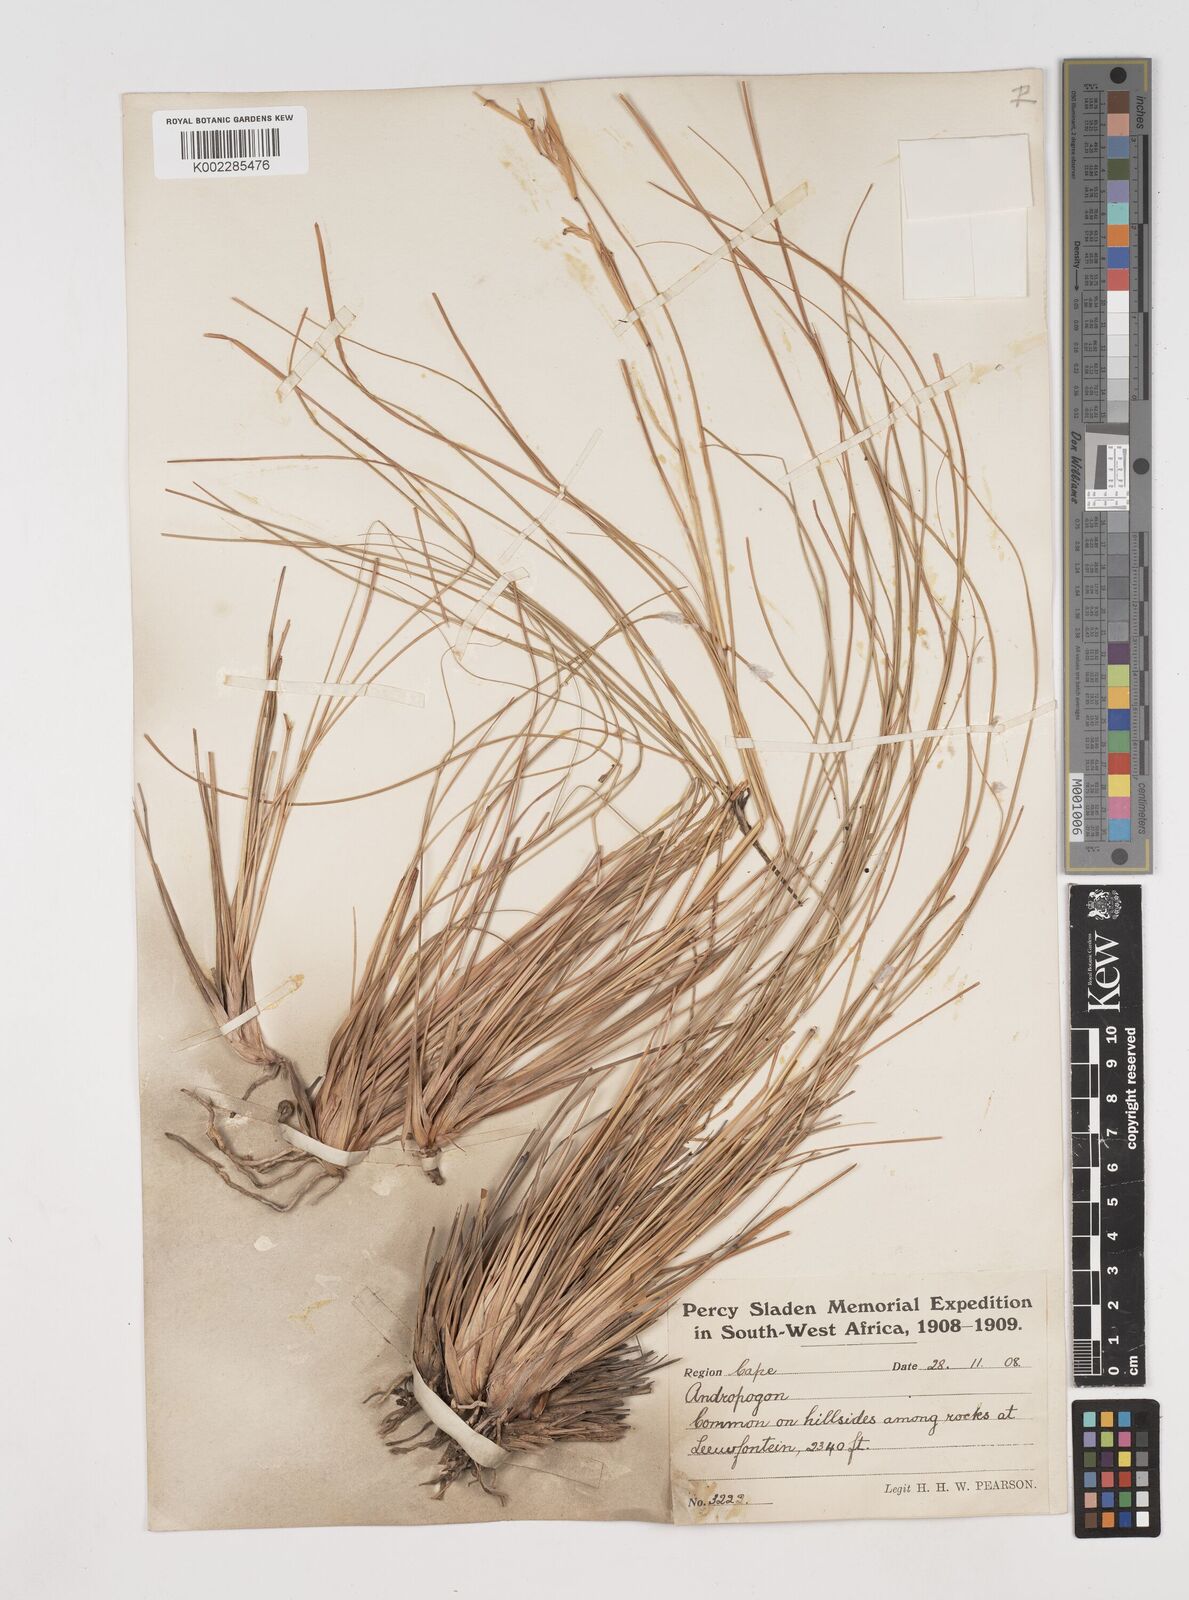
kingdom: Plantae
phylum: Tracheophyta
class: Liliopsida
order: Poales
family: Poaceae
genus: Cymbopogon
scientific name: Cymbopogon pospischilii
